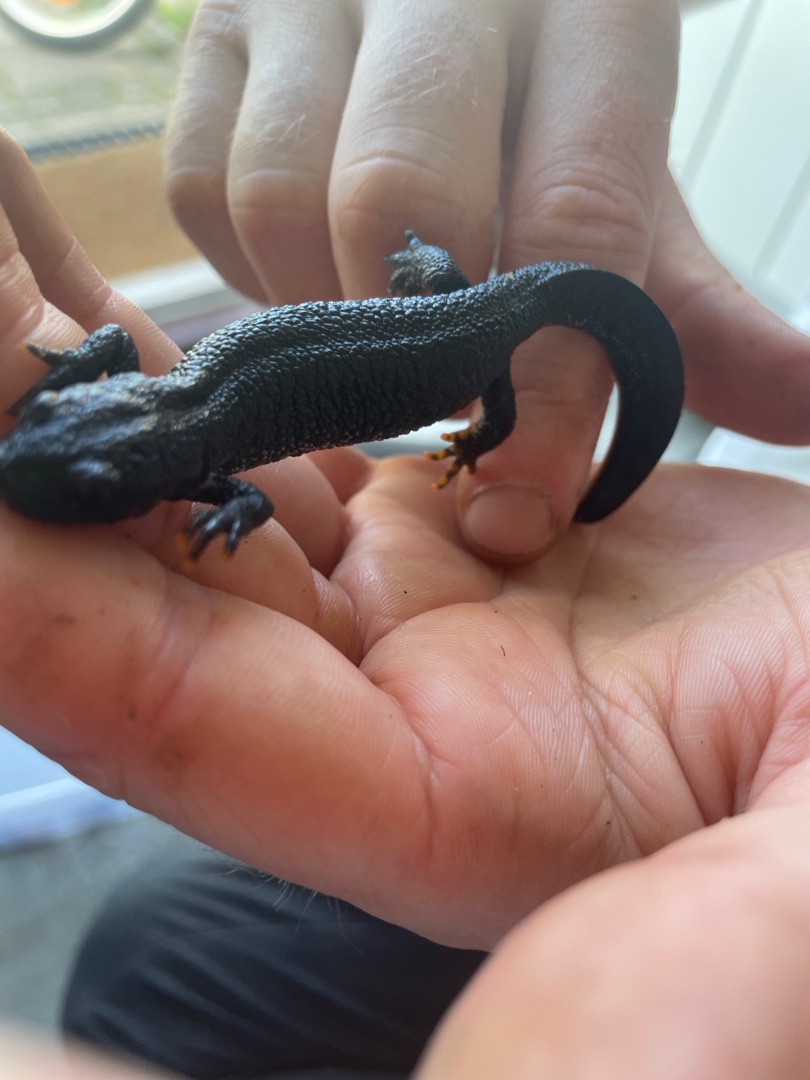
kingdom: Animalia
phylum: Chordata
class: Amphibia
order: Caudata
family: Salamandridae
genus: Triturus
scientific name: Triturus cristatus
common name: Stor vandsalamander
